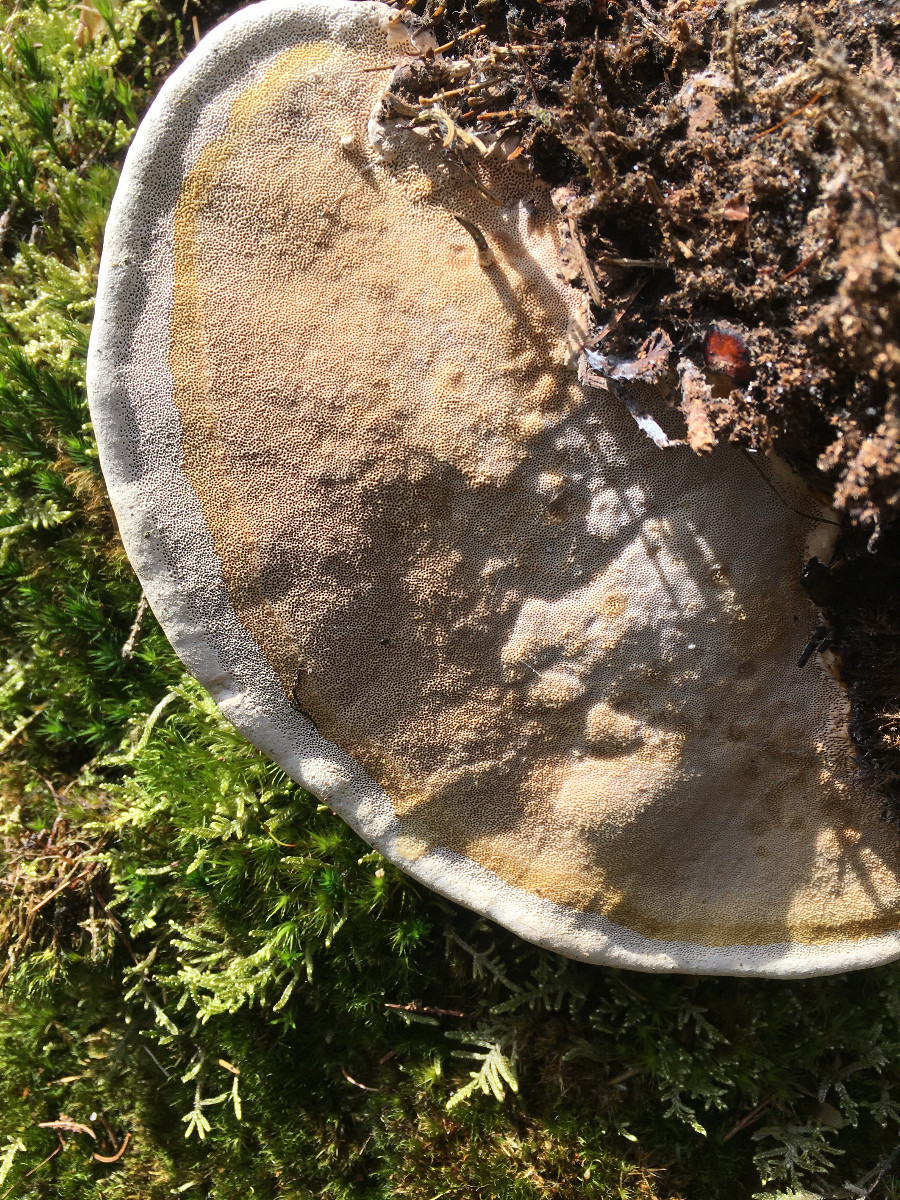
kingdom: Fungi
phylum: Basidiomycota
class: Agaricomycetes
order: Polyporales
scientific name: Polyporales
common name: poresvampordenen
